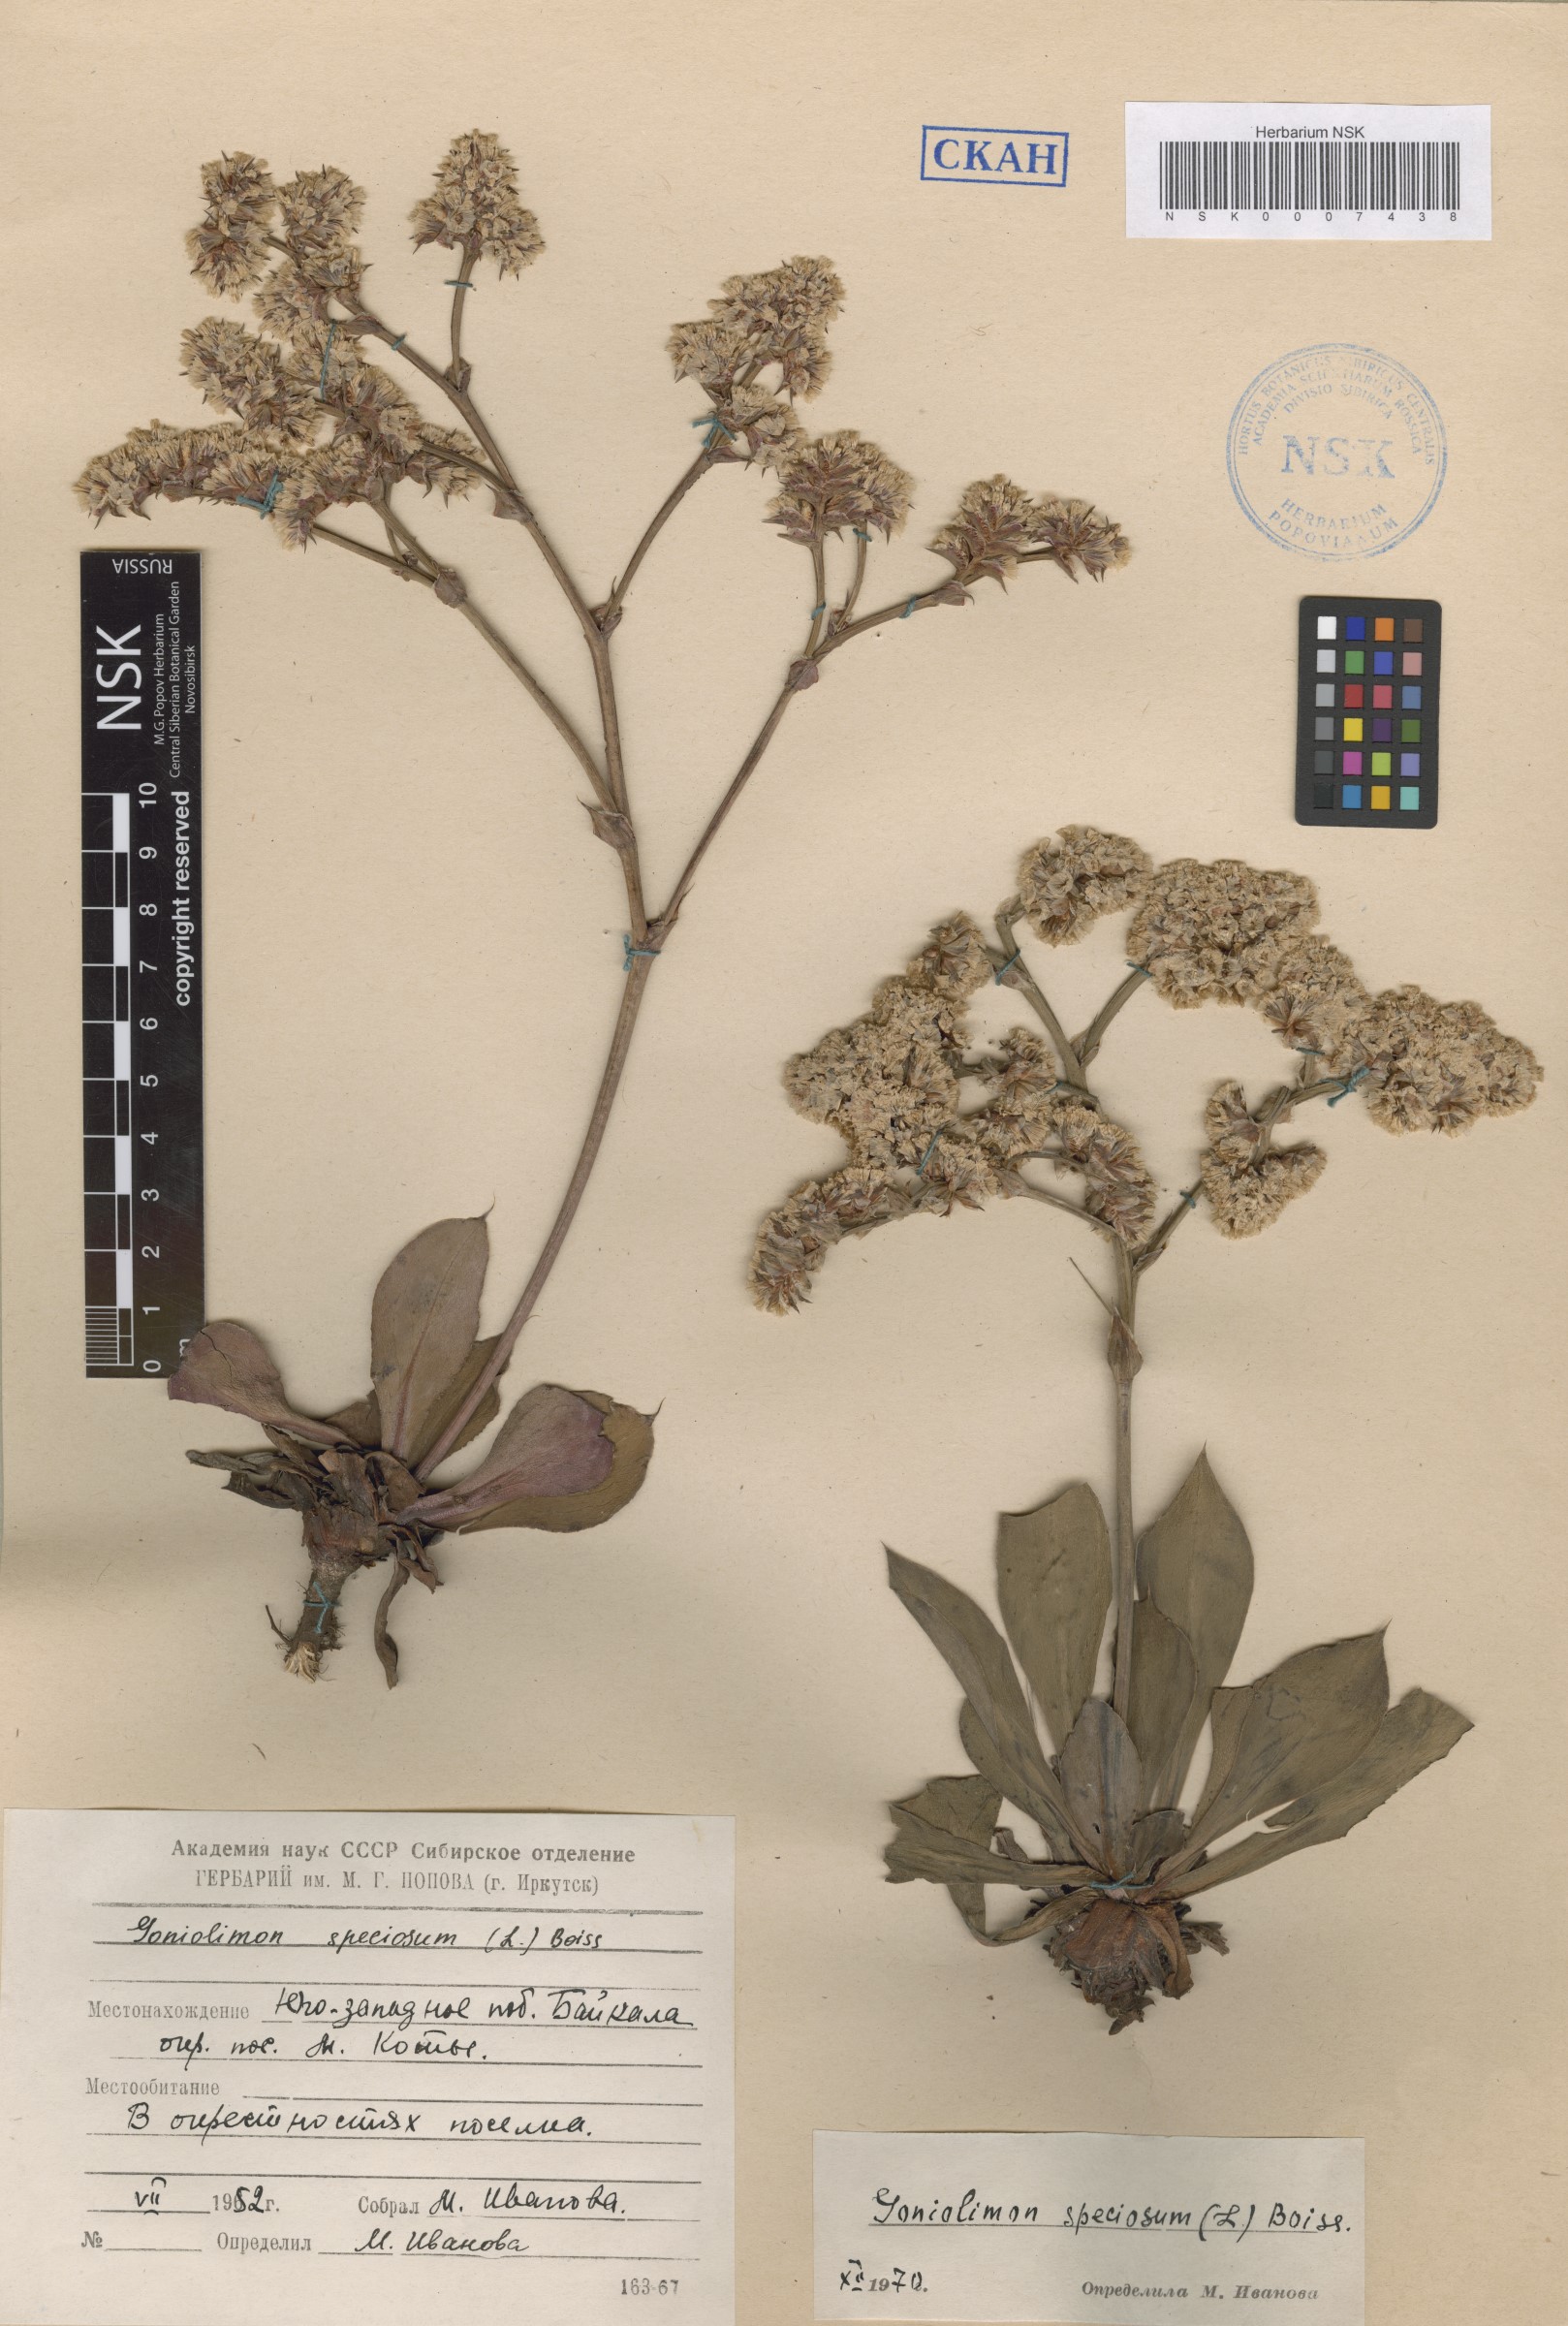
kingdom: Plantae
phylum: Tracheophyta
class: Magnoliopsida
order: Caryophyllales
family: Plumbaginaceae
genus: Goniolimon
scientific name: Goniolimon speciosum
